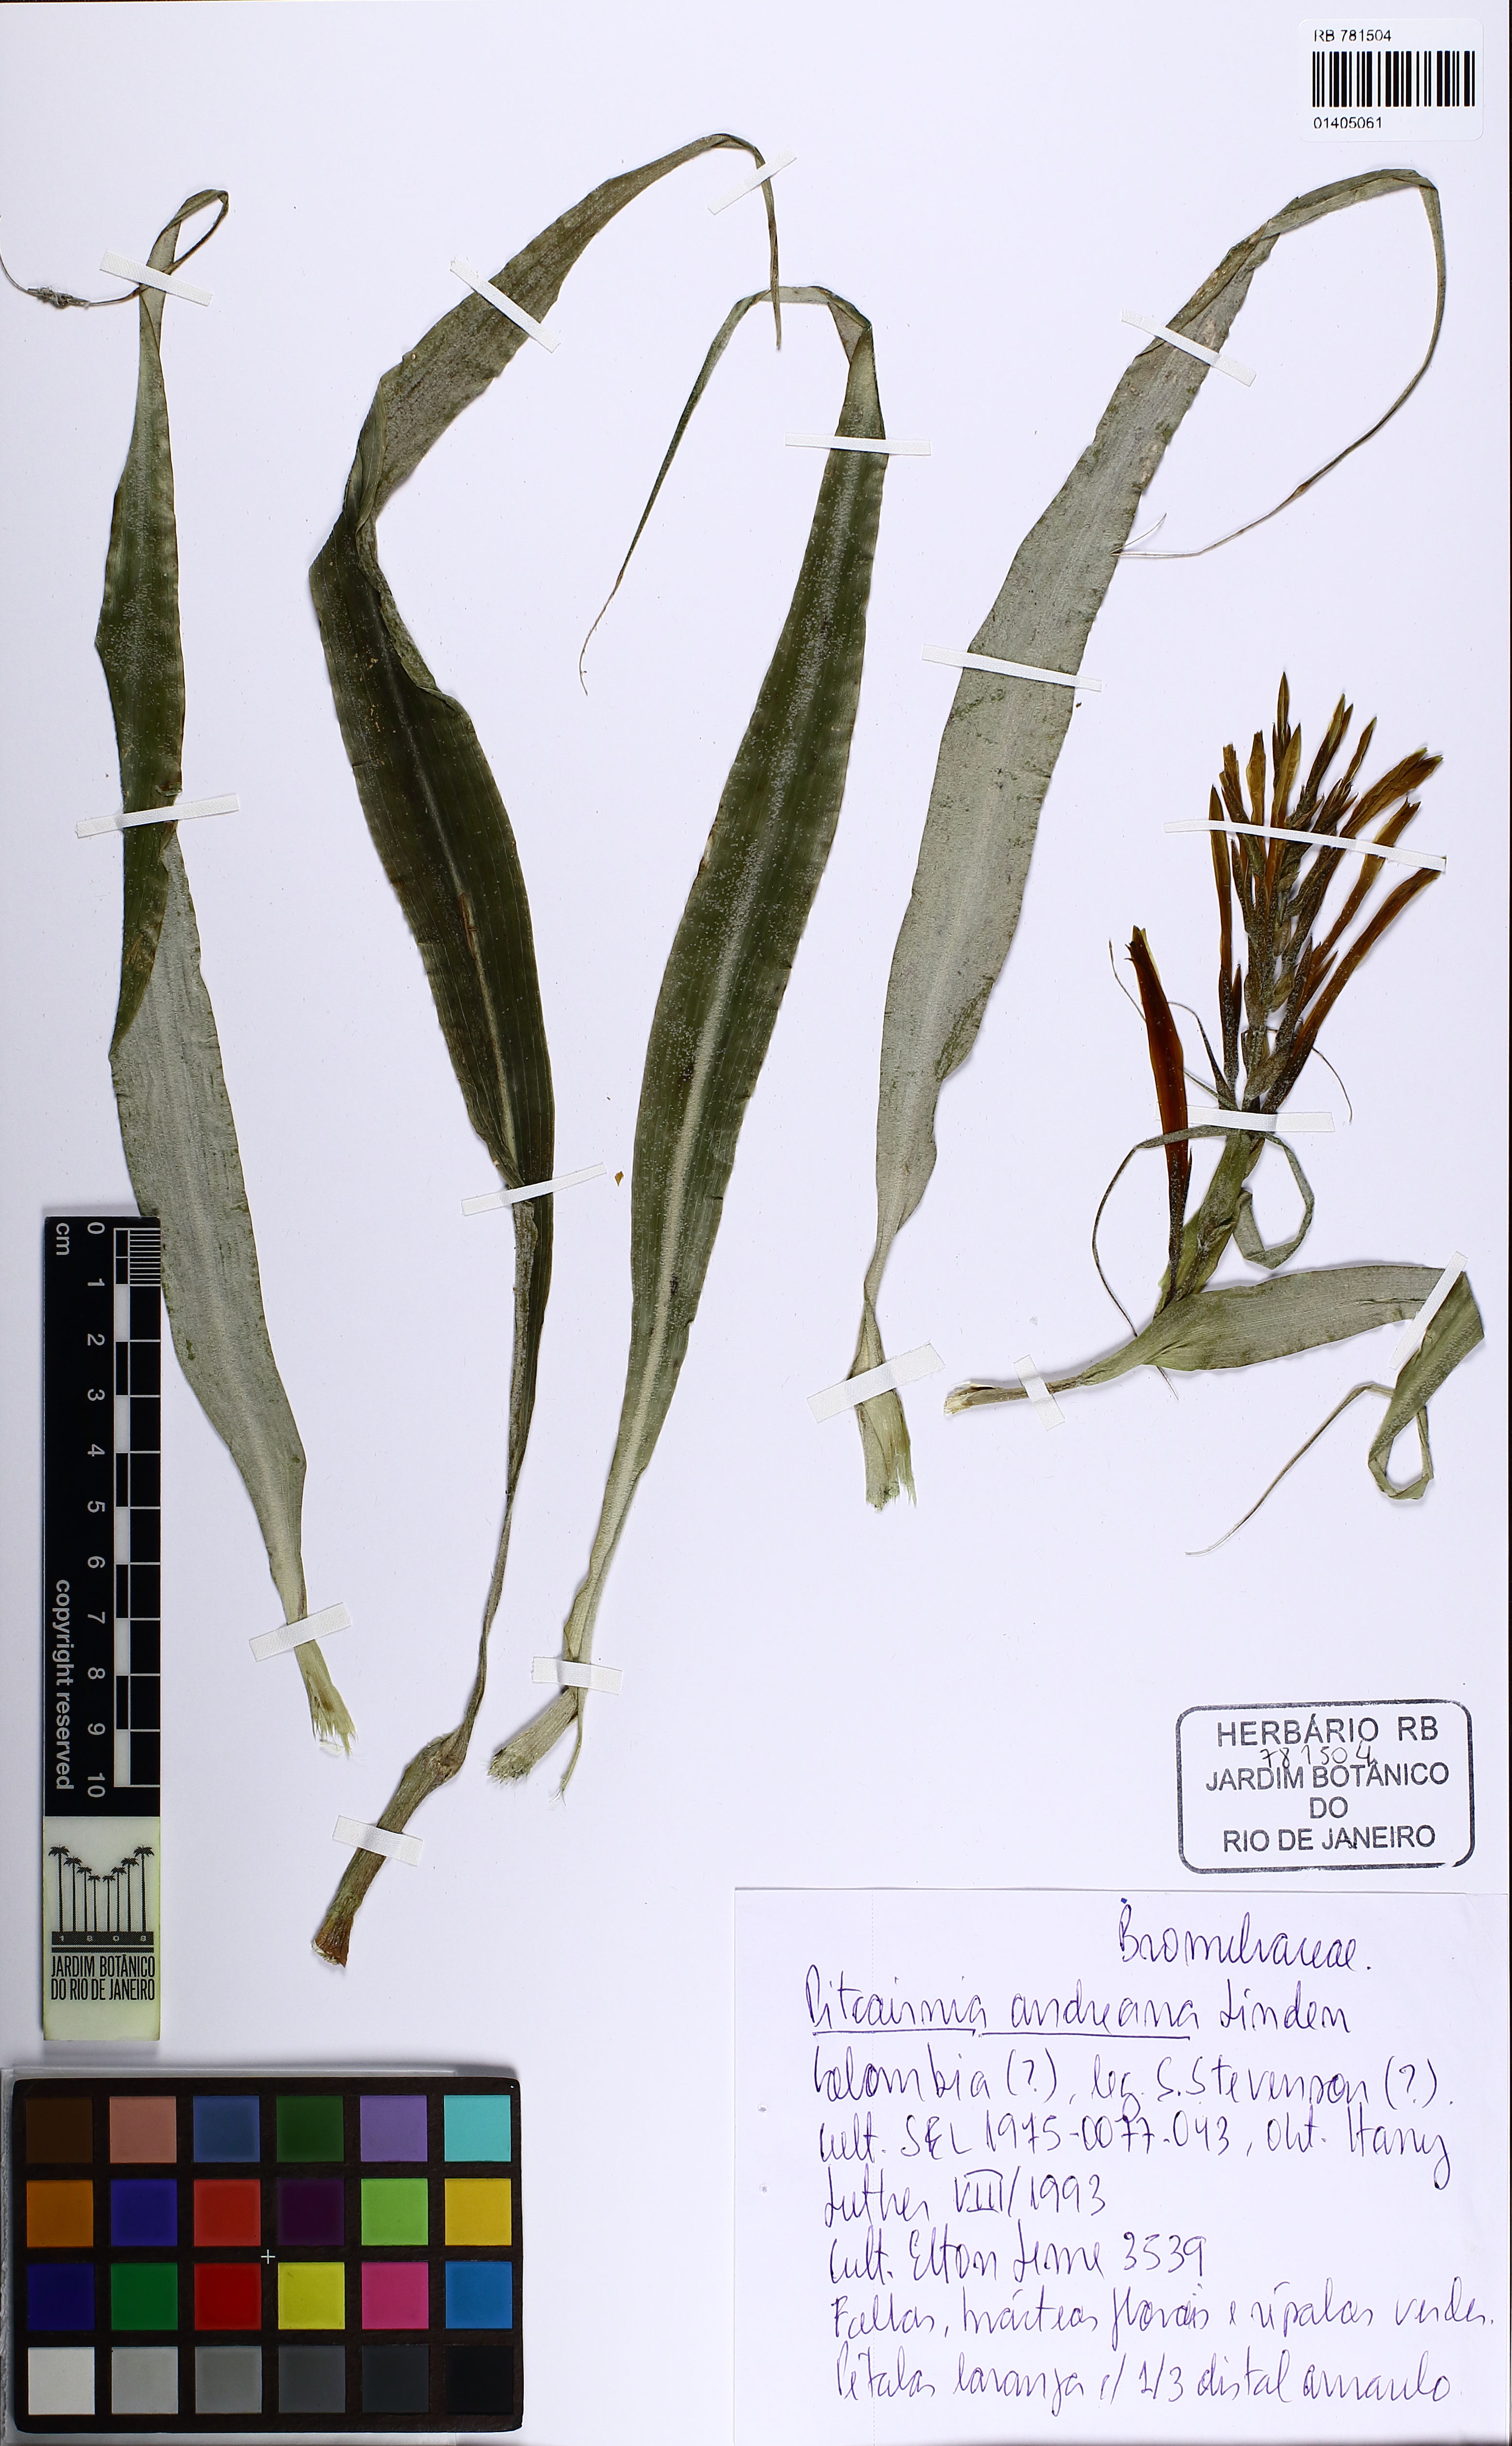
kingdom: Plantae
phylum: Tracheophyta
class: Liliopsida
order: Poales
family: Bromeliaceae
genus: Pitcairnia
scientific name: Pitcairnia andreana
